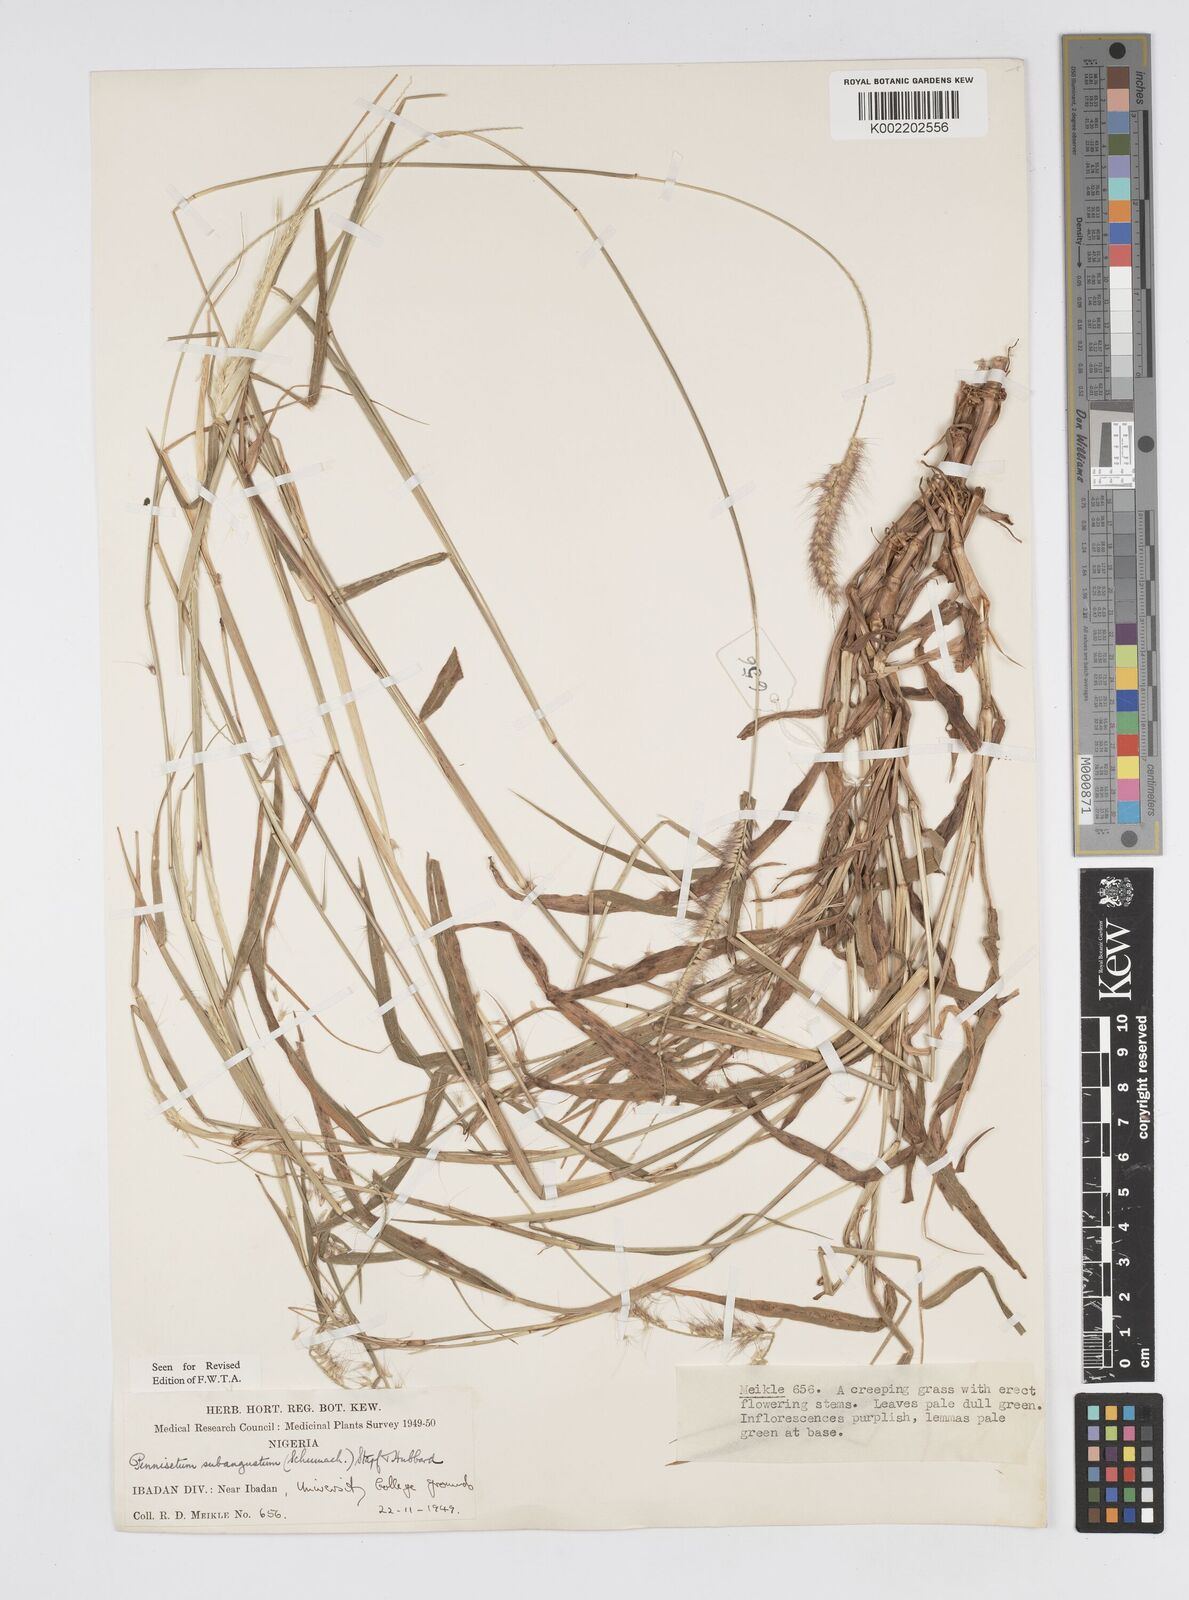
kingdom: Plantae
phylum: Tracheophyta
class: Liliopsida
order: Poales
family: Poaceae
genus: Setaria
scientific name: Setaria parviflora
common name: Knotroot bristle-grass
